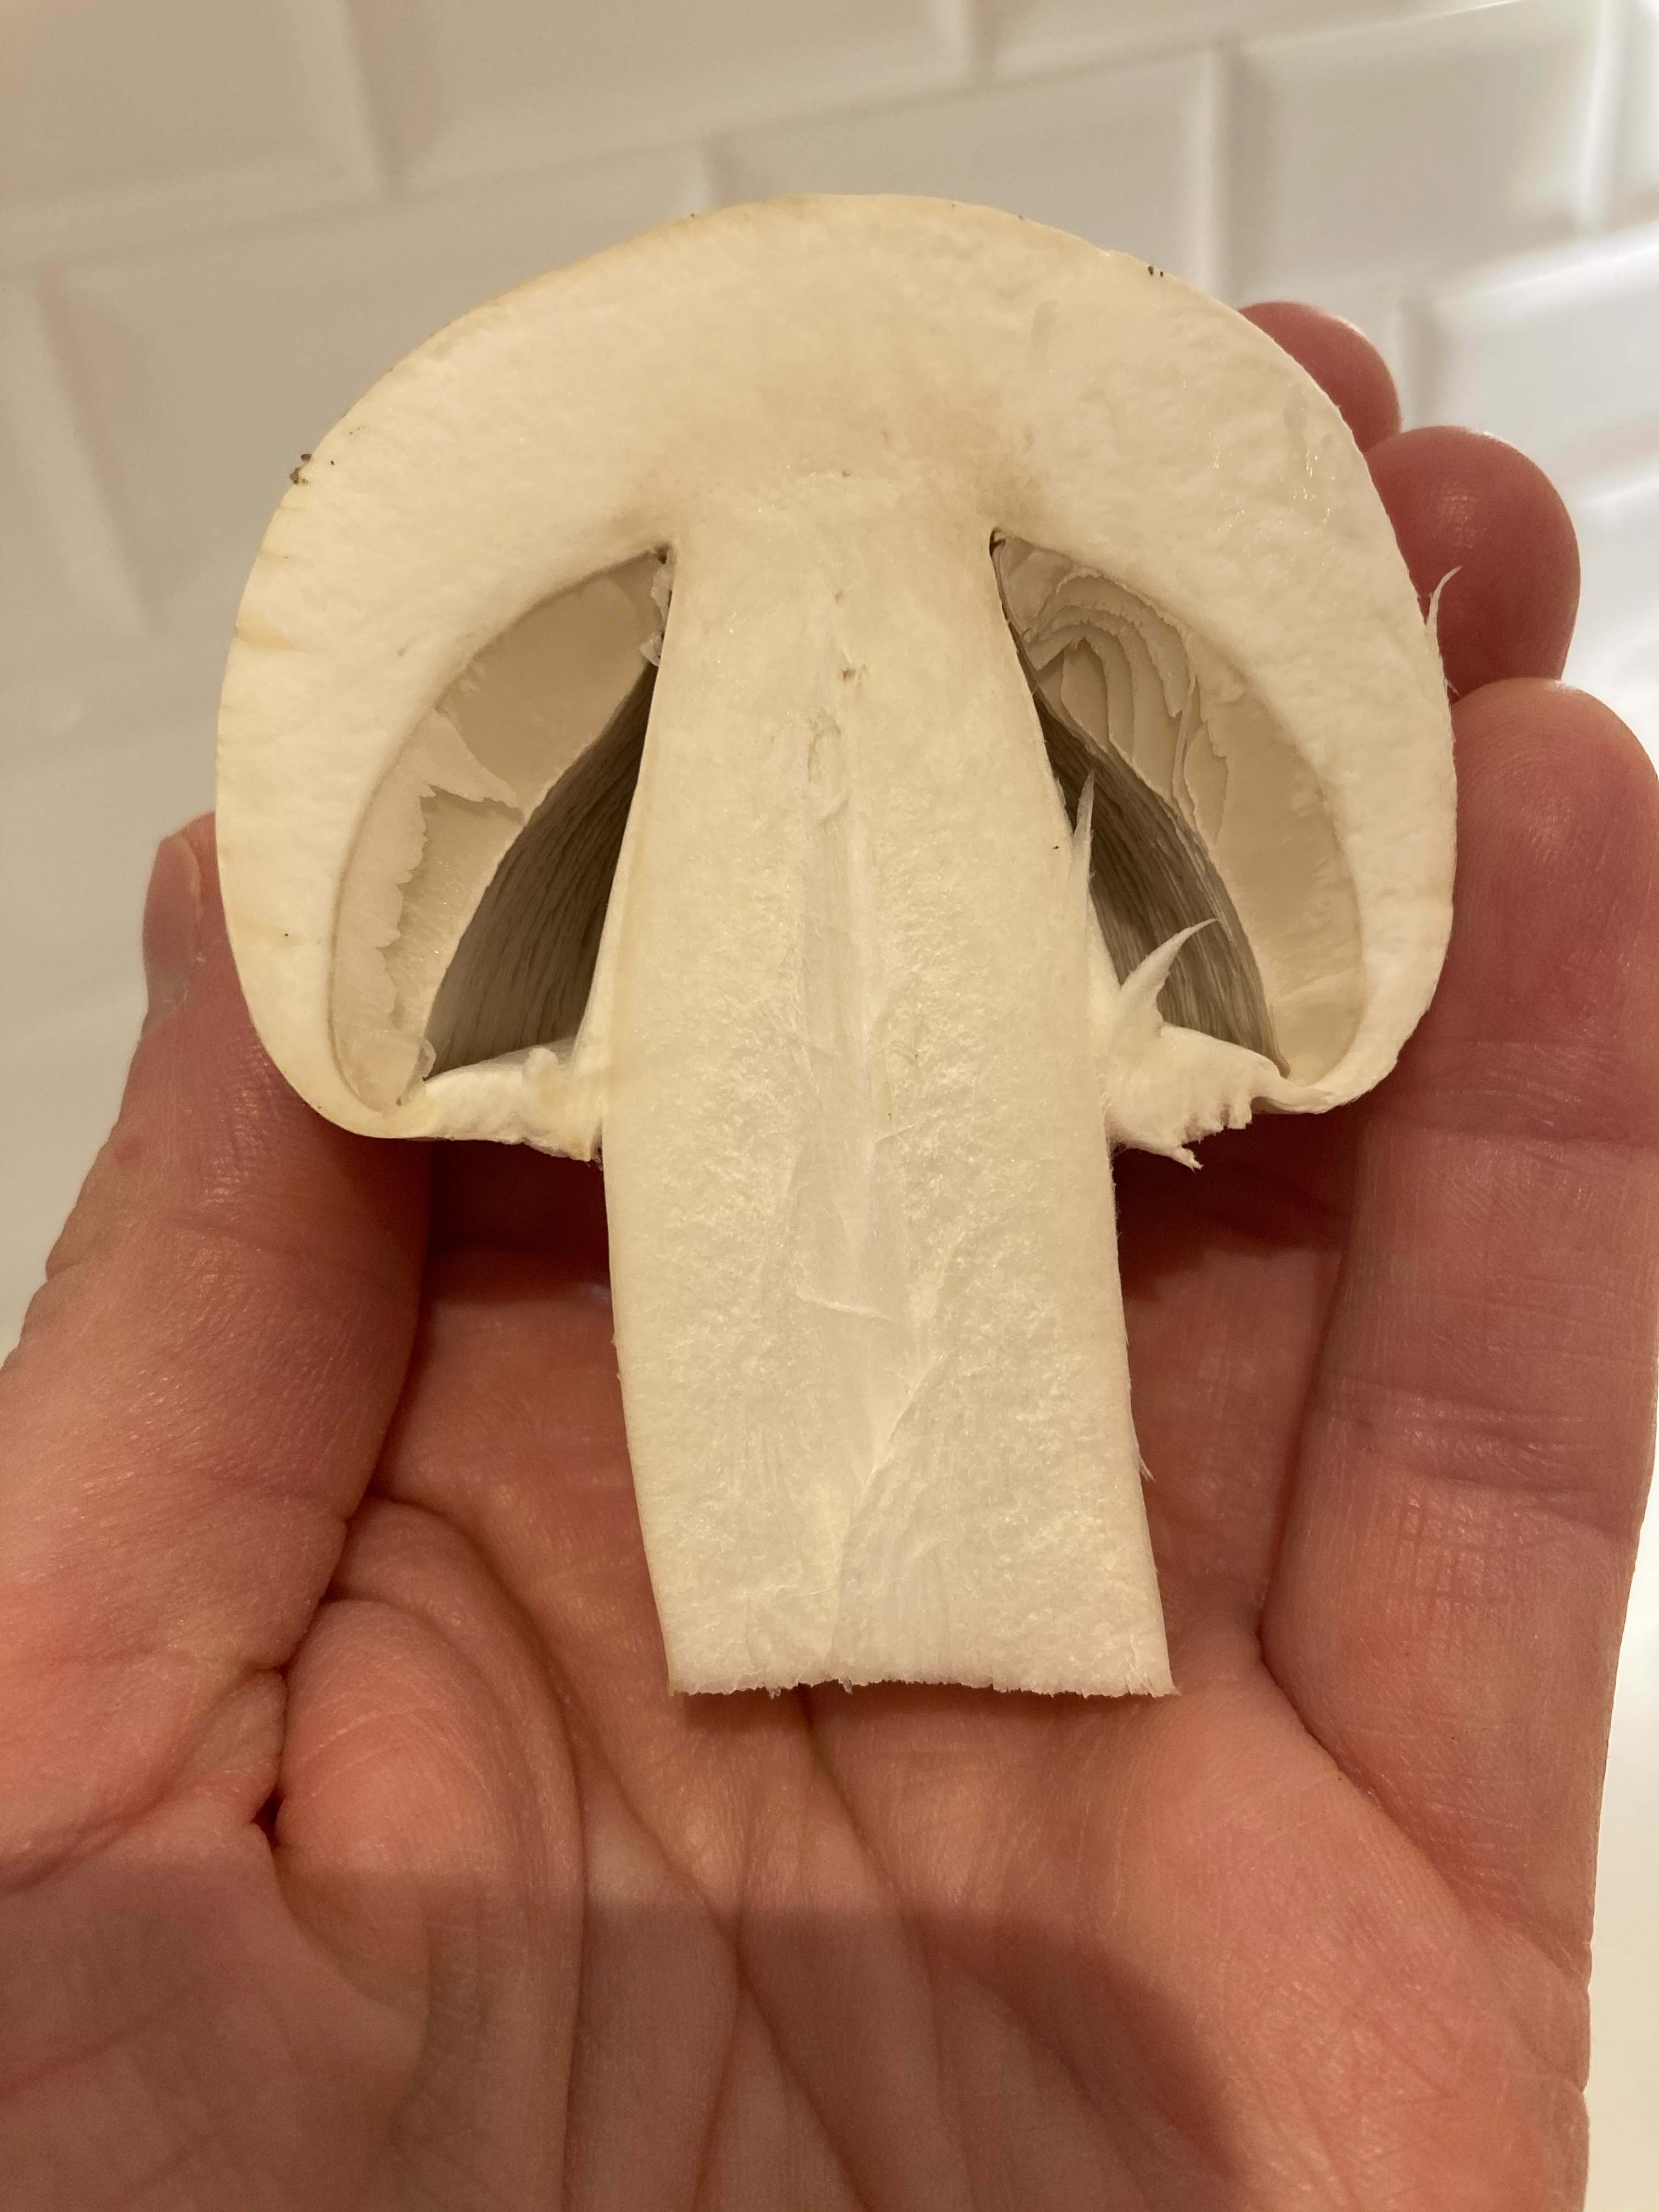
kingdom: Fungi
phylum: Basidiomycota
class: Agaricomycetes
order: Agaricales
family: Agaricaceae
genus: Agaricus
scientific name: Agaricus
